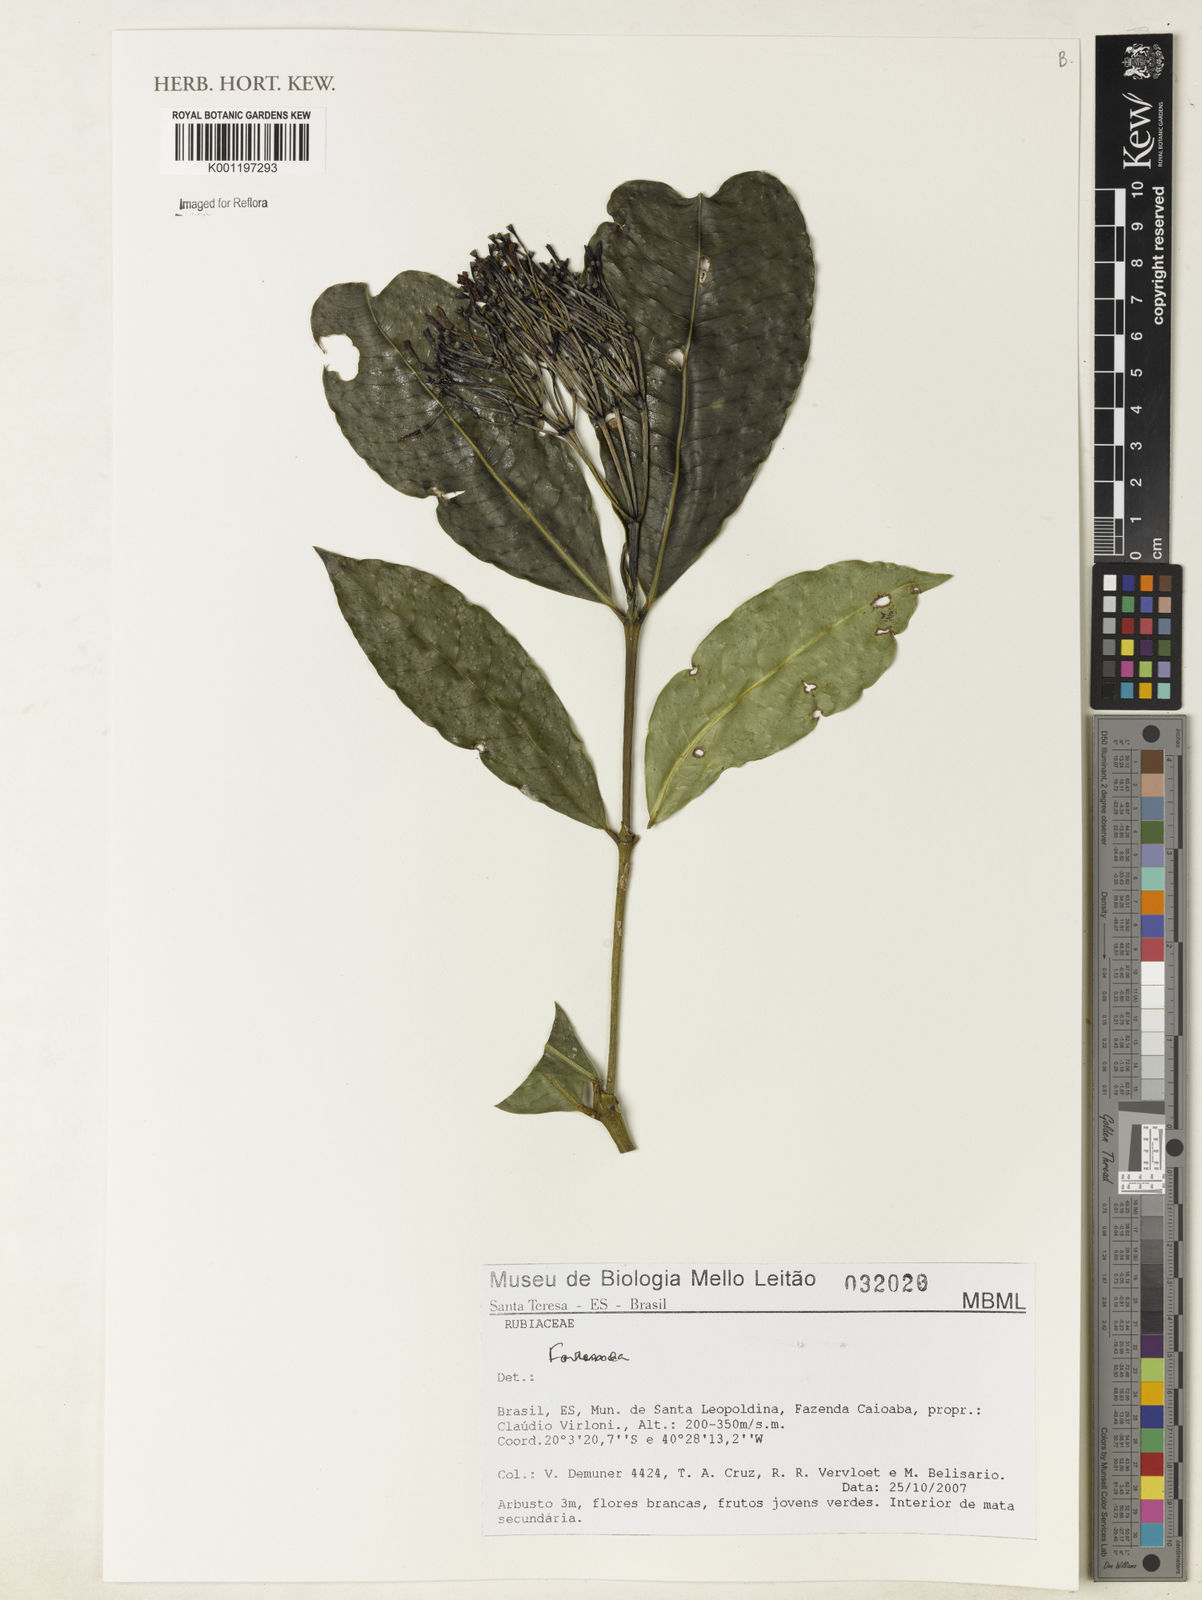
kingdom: Plantae
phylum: Tracheophyta
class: Magnoliopsida
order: Gentianales
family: Rubiaceae
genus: Faramea
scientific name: Faramea
